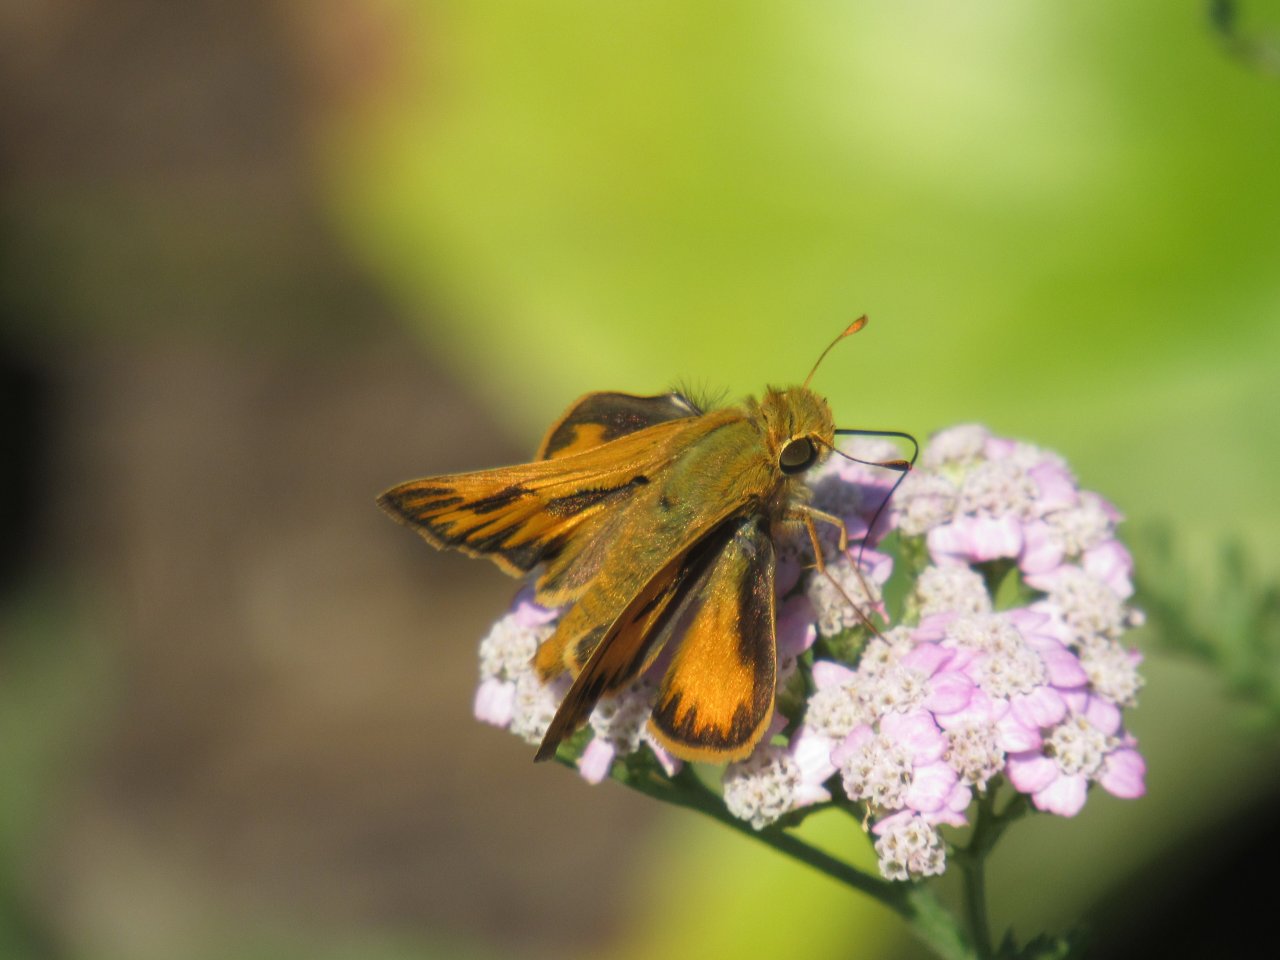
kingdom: Animalia
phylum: Arthropoda
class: Insecta
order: Lepidoptera
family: Hesperiidae
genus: Hylephila
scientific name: Hylephila phyleus
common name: Fiery Skipper
